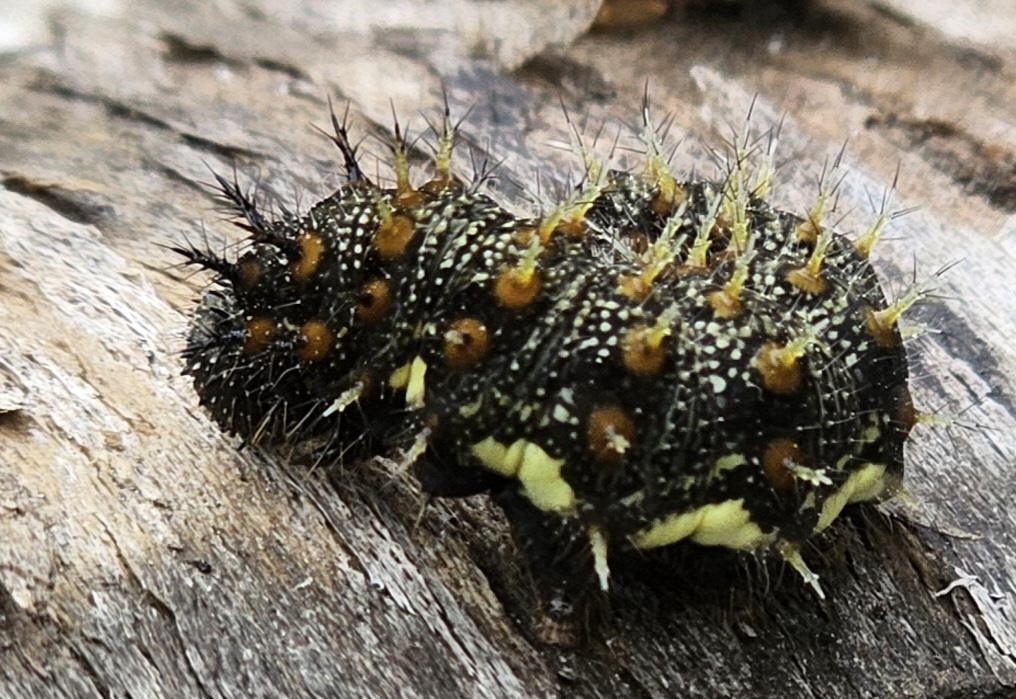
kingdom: Animalia
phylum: Arthropoda
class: Insecta
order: Lepidoptera
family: Nymphalidae
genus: Vanessa
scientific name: Vanessa atalanta
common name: Admiral
